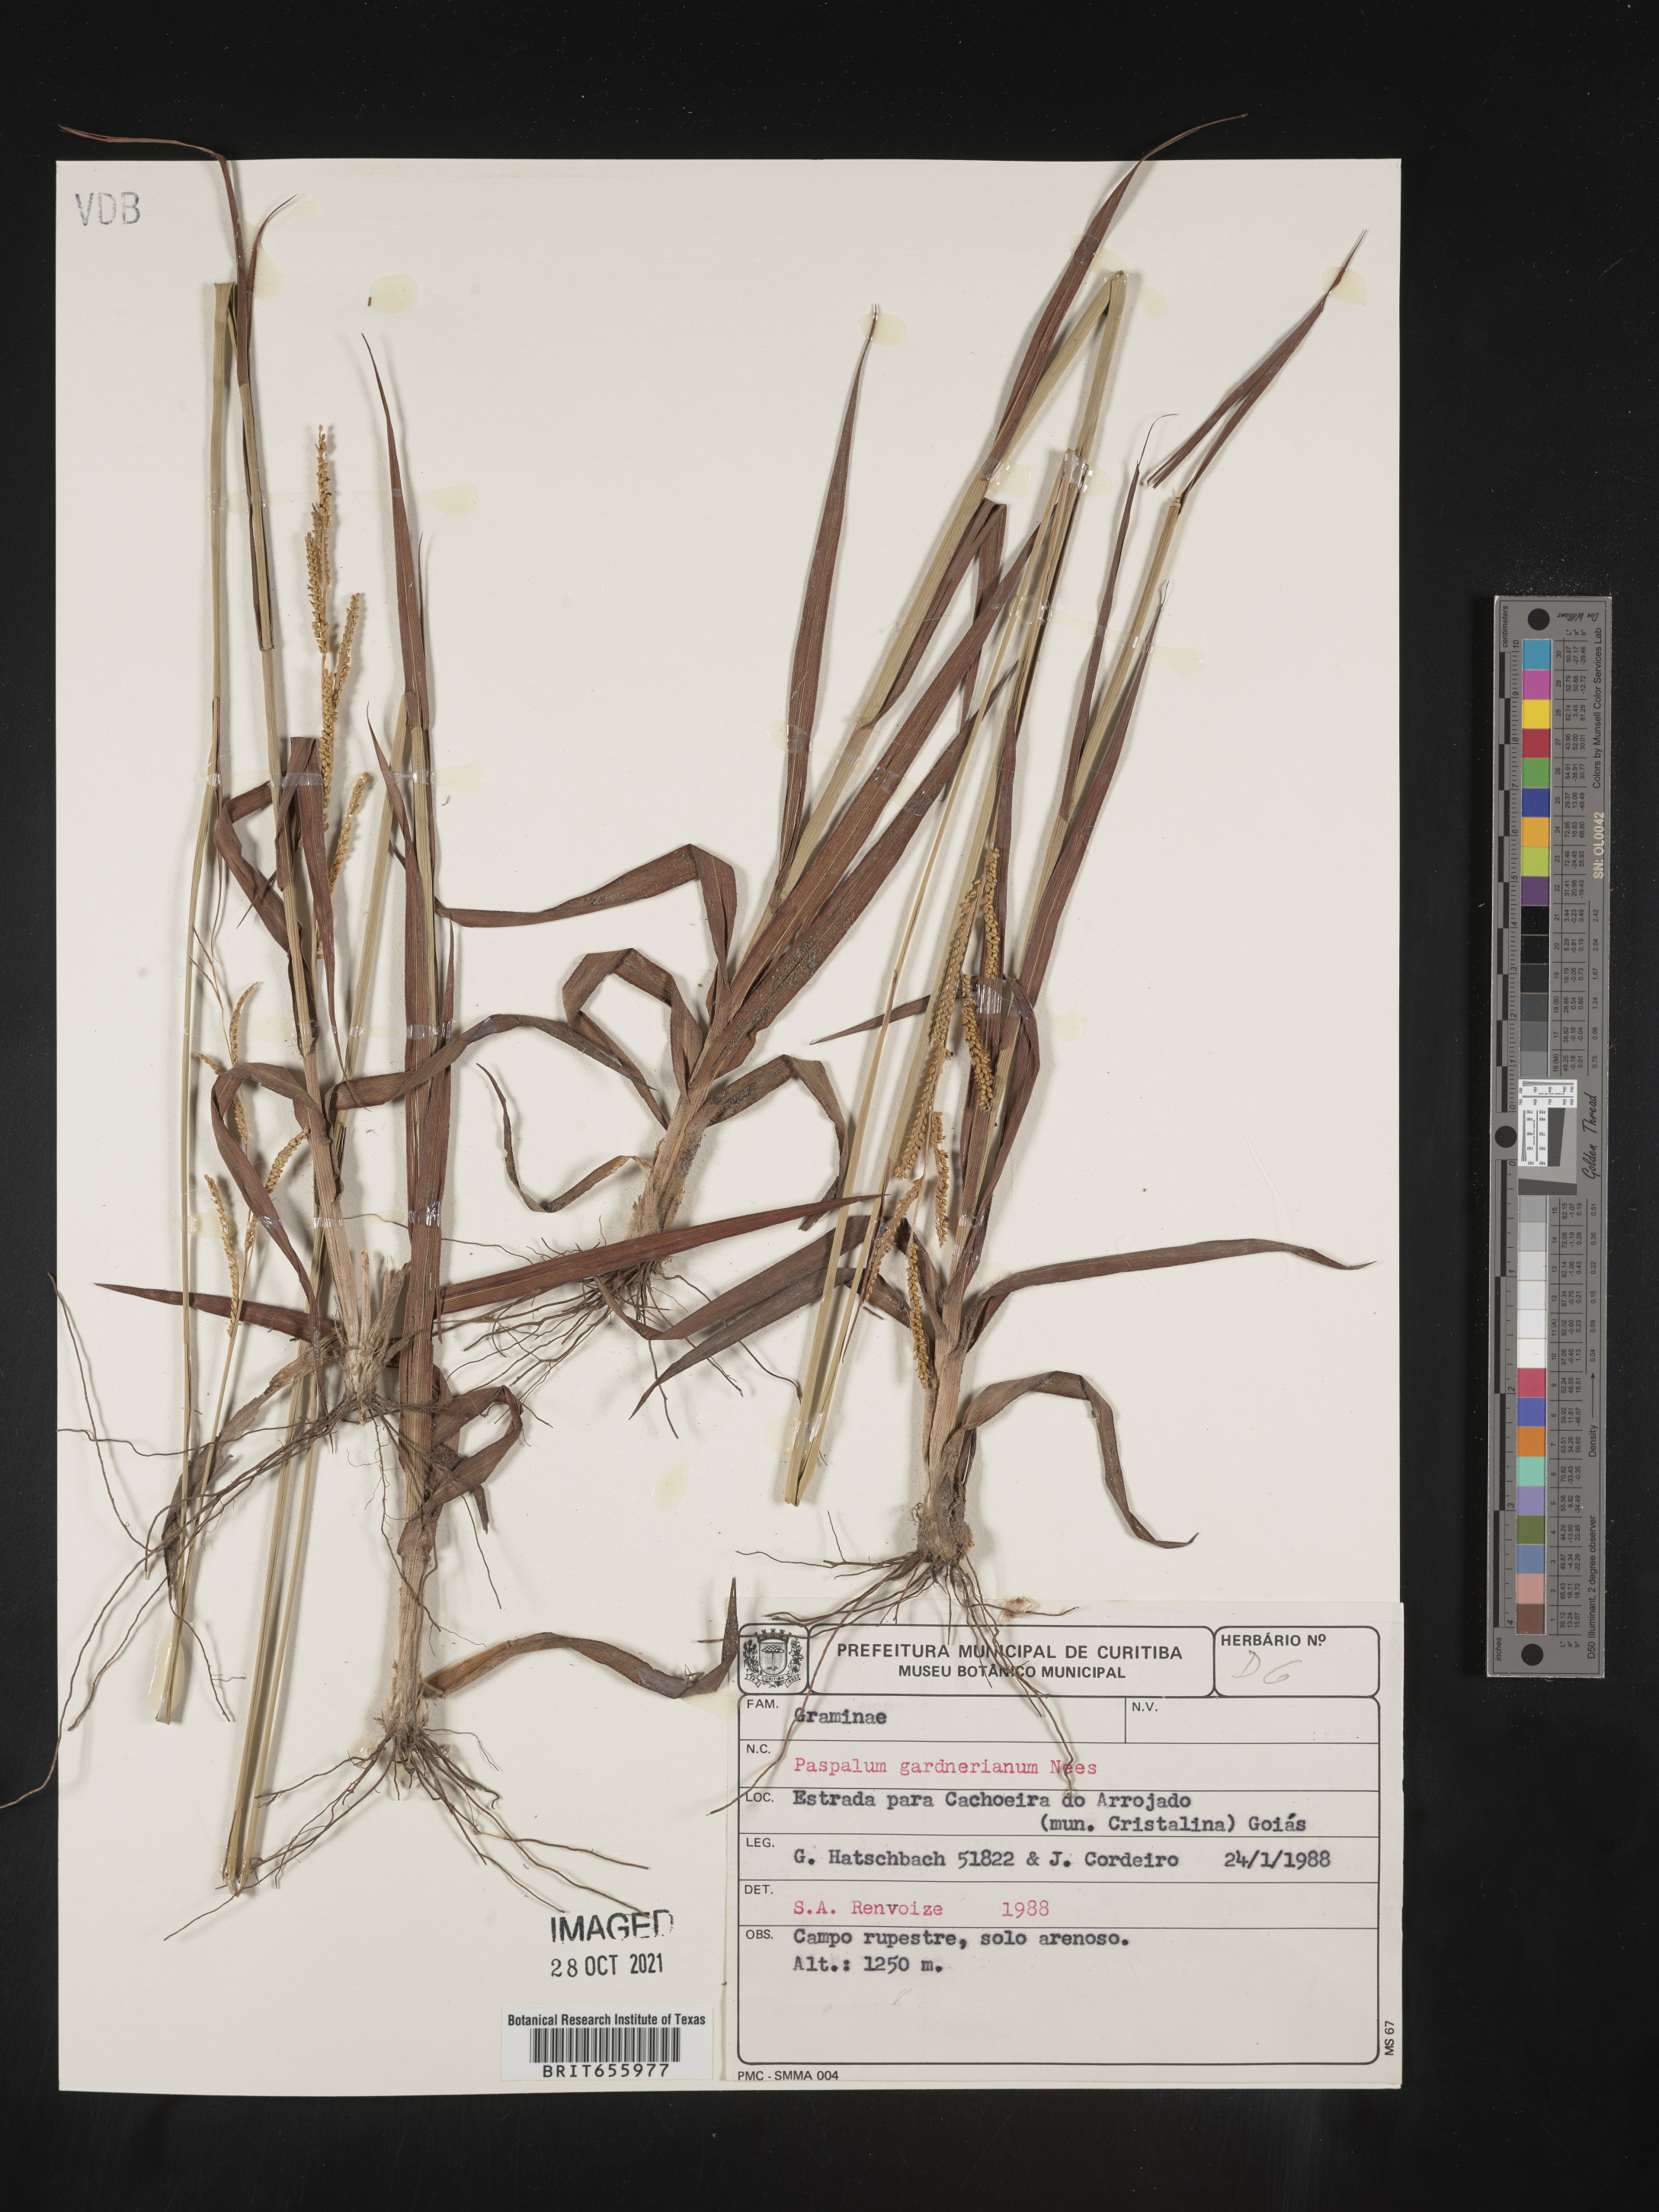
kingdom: Plantae
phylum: Tracheophyta
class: Liliopsida
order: Poales
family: Poaceae
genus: Paspalum
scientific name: Paspalum
